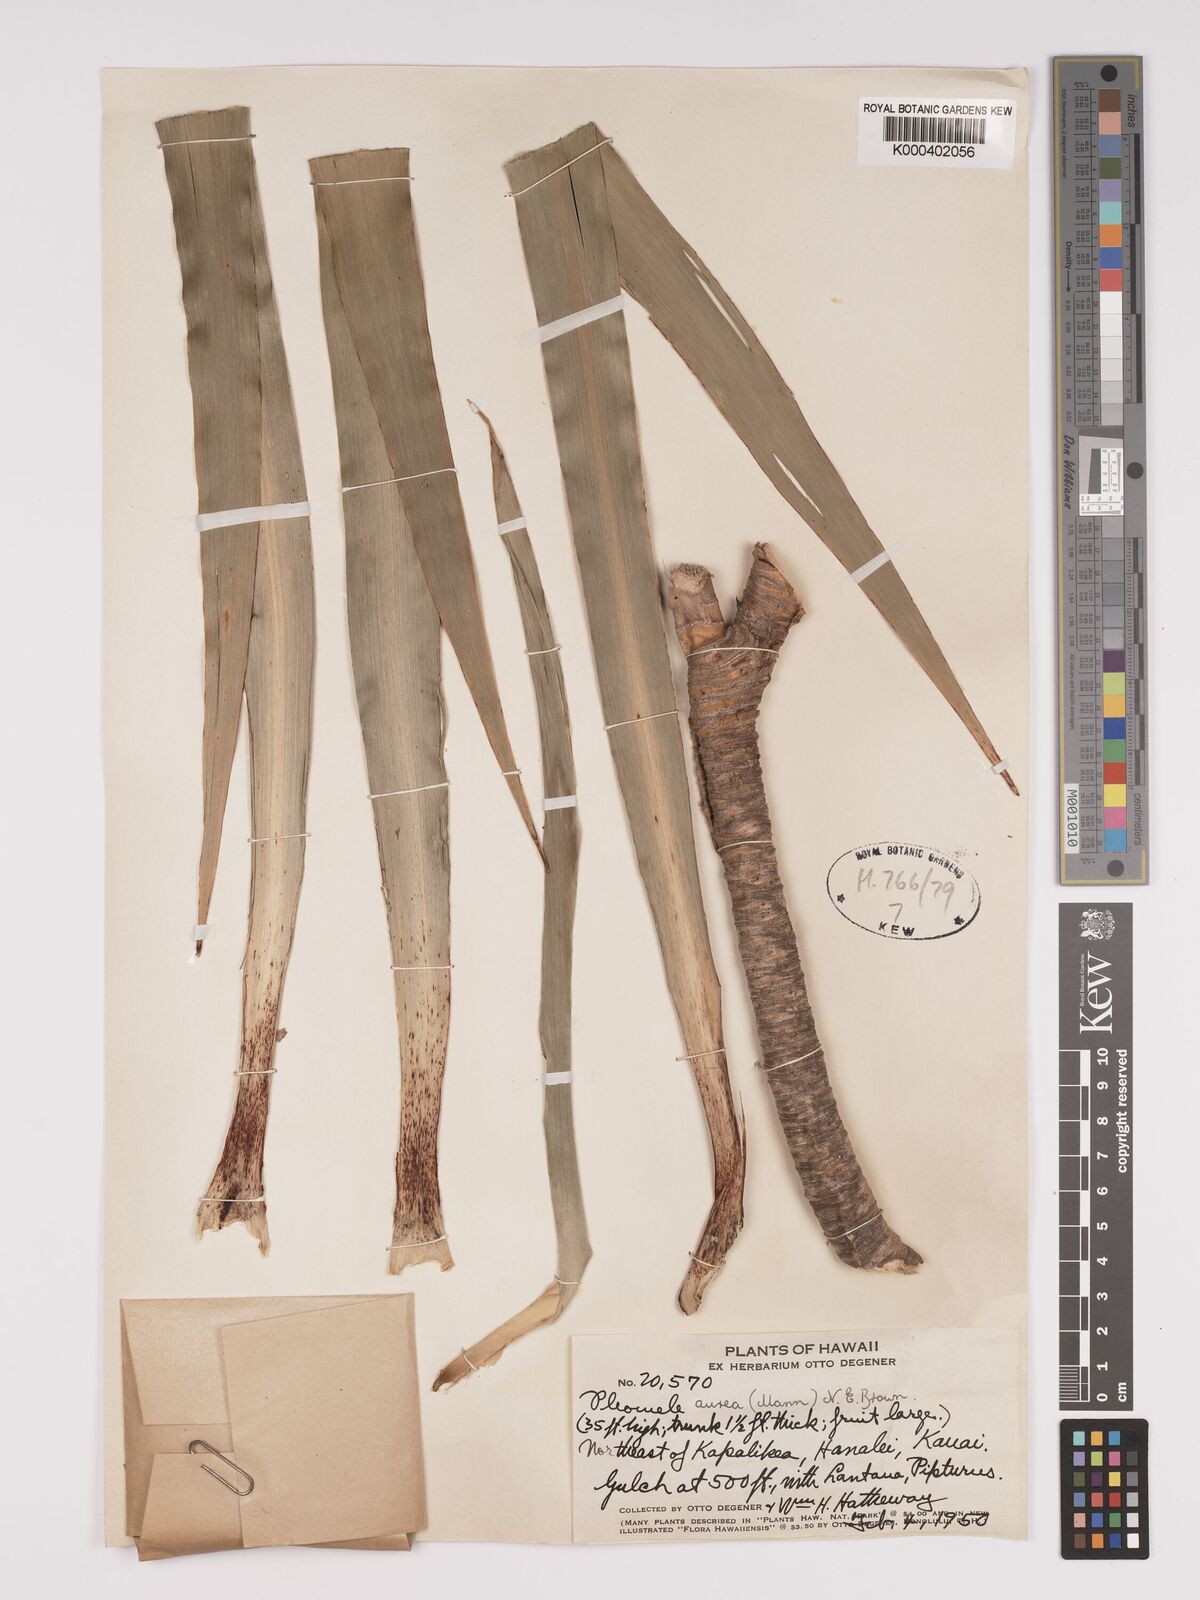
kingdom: Plantae
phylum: Tracheophyta
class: Liliopsida
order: Asparagales
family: Asparagaceae
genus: Dracaena
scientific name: Dracaena aurea
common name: Golden dracaena
